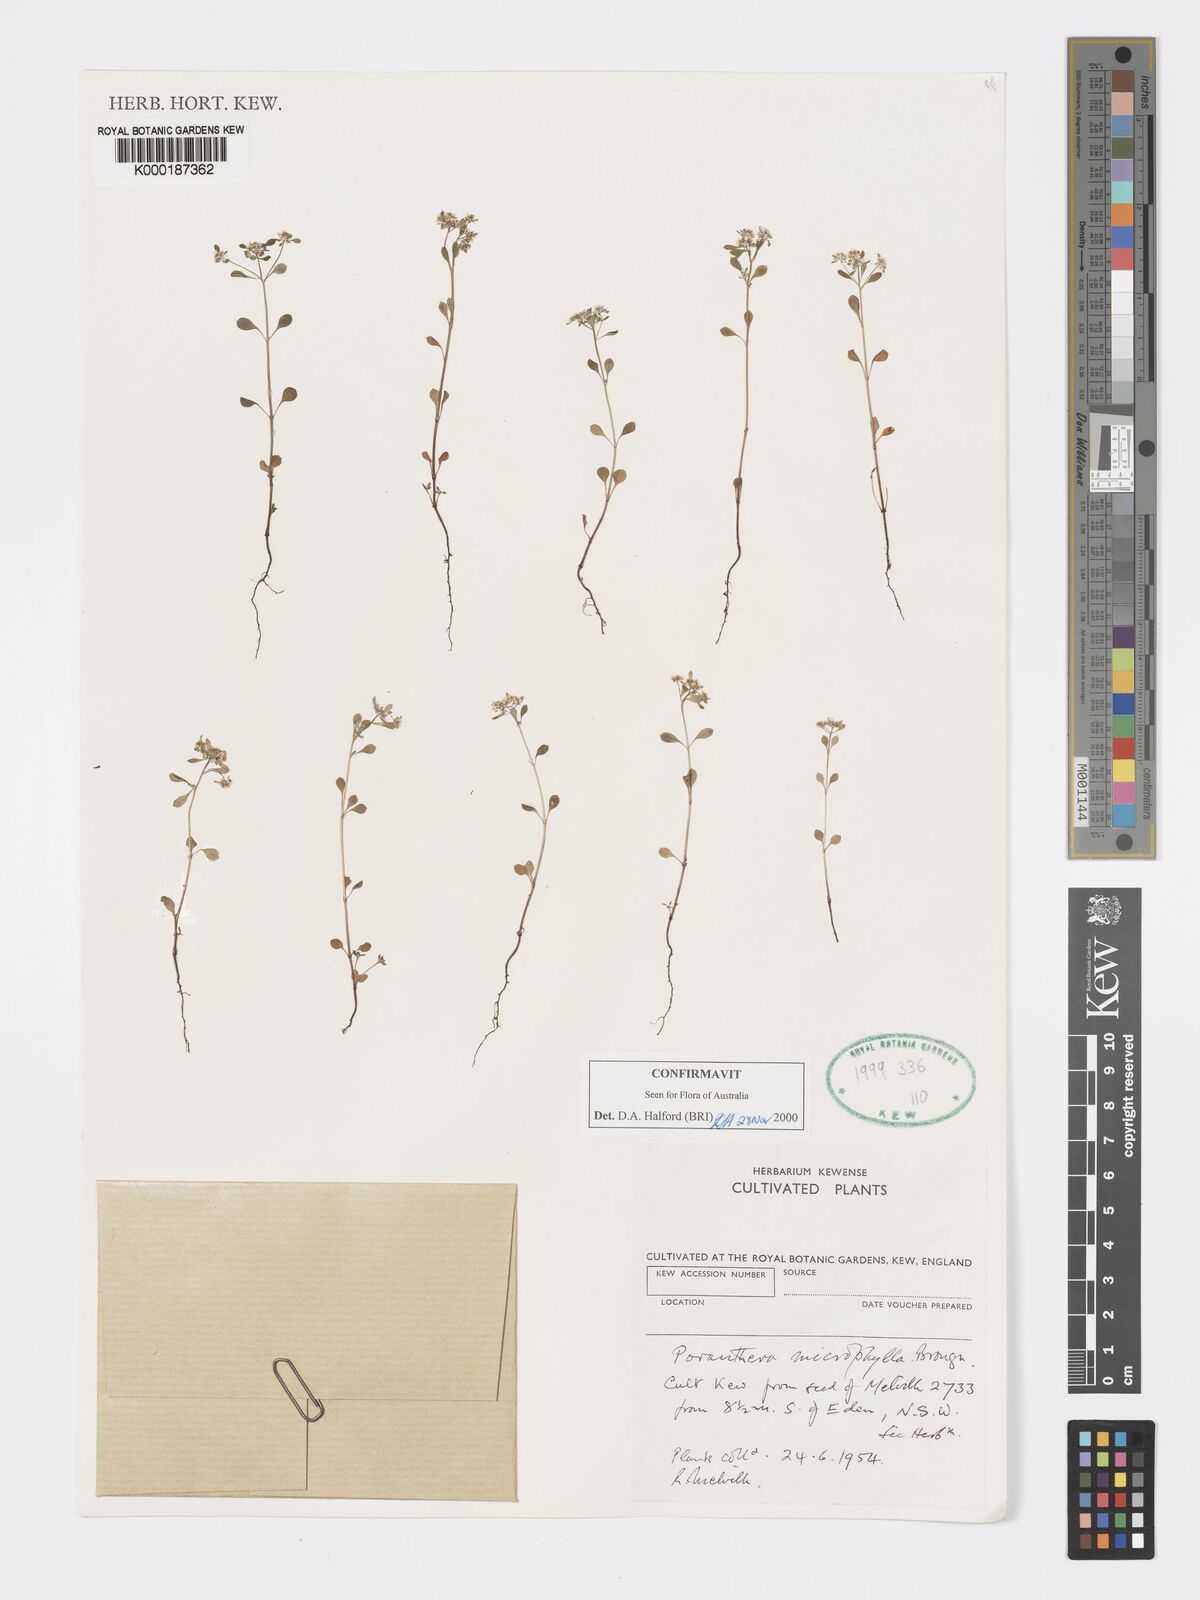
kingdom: Plantae
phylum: Tracheophyta
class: Magnoliopsida
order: Malpighiales
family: Phyllanthaceae
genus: Poranthera
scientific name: Poranthera microphylla
